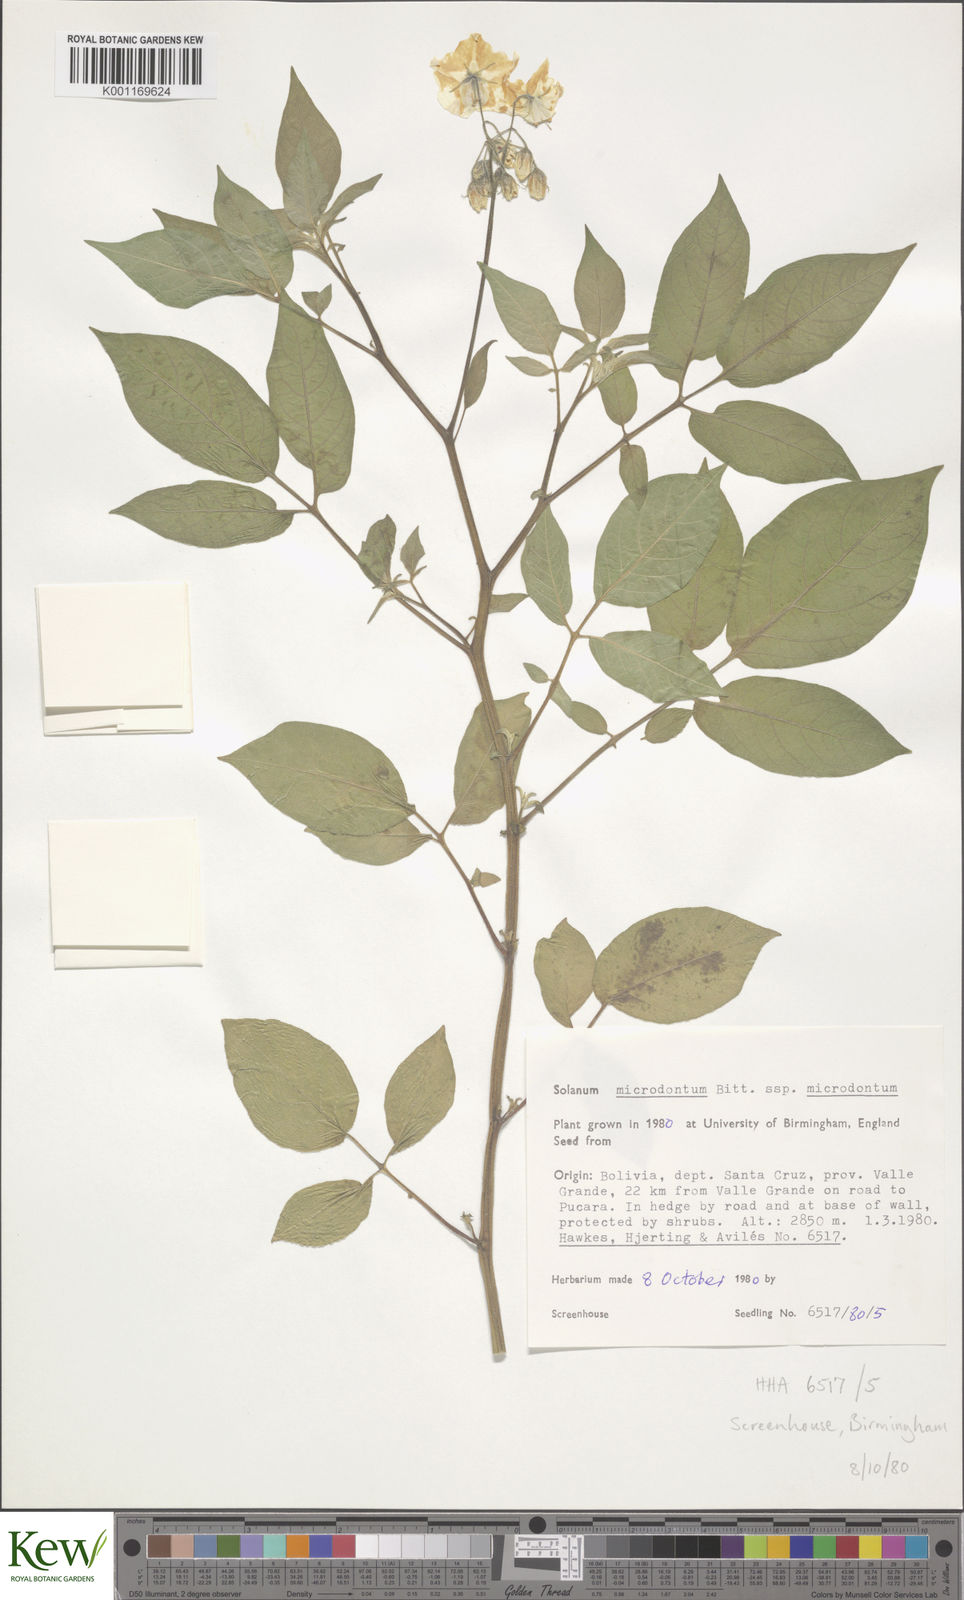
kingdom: Plantae
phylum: Tracheophyta
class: Magnoliopsida
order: Solanales
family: Solanaceae
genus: Solanum
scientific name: Solanum microdontum
